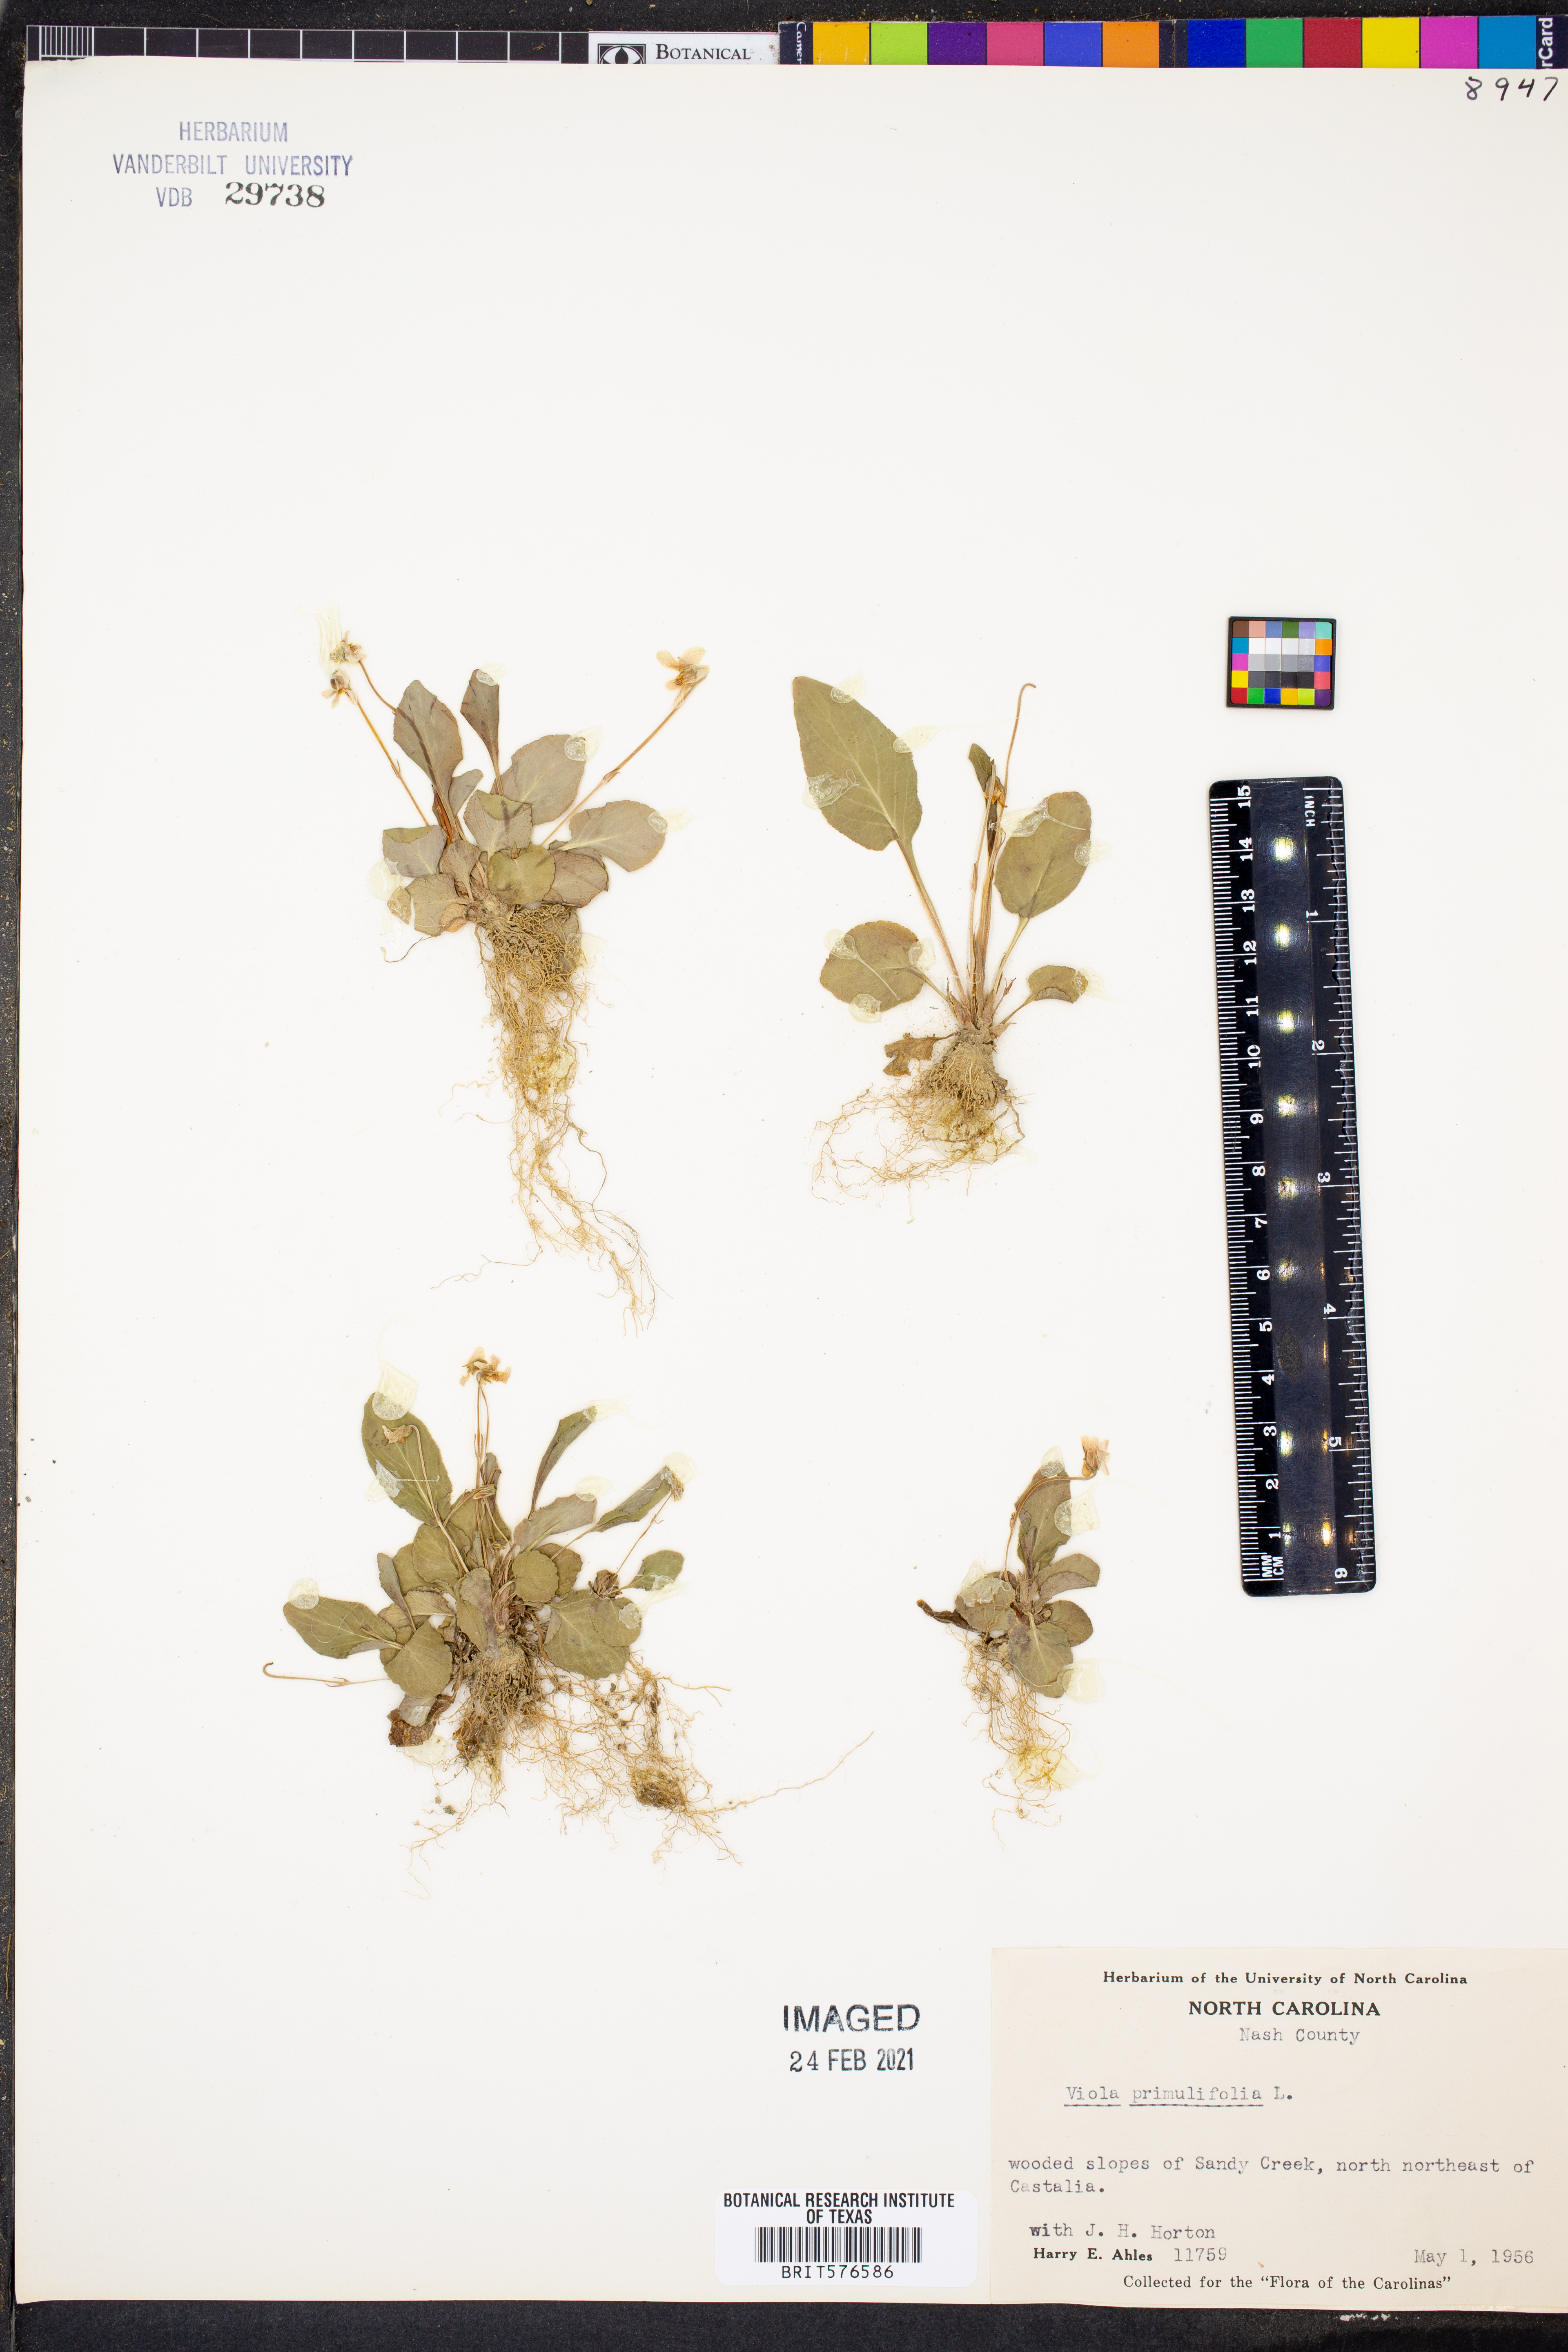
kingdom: Plantae
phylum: Tracheophyta
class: Magnoliopsida
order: Malpighiales
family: Violaceae
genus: Viola
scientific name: Viola primulifolia
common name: Primrose-leaf violet
